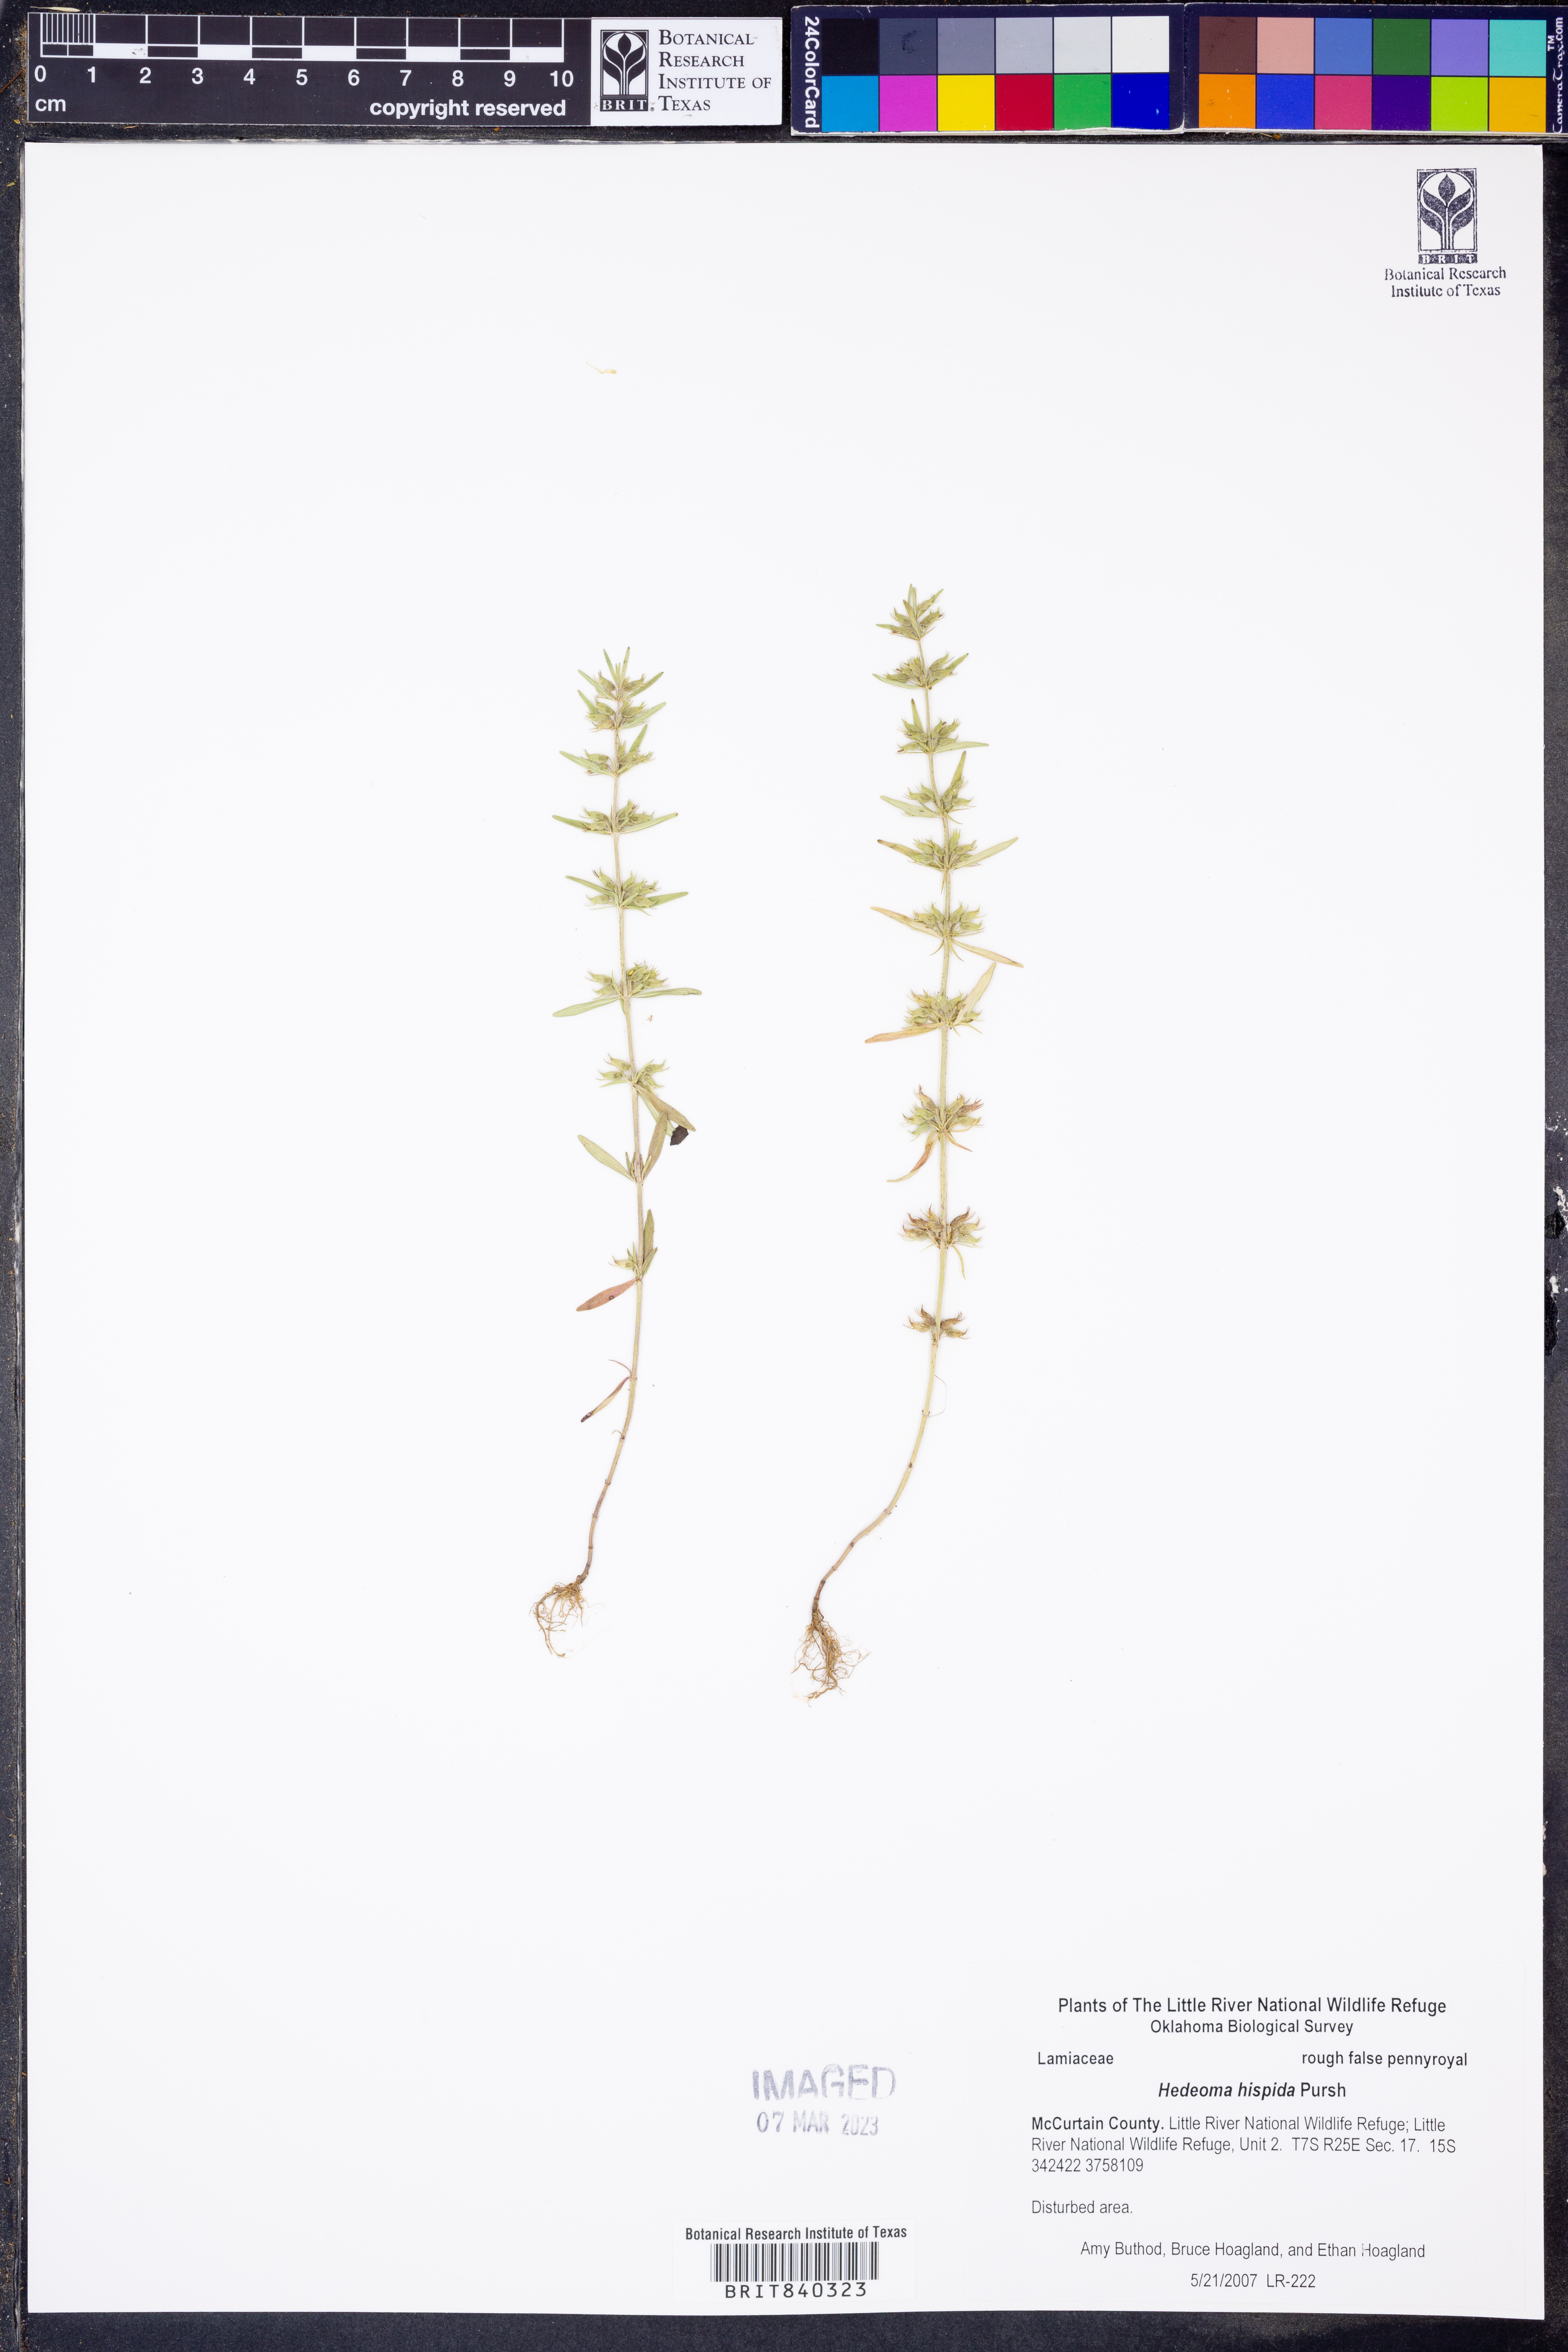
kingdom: Plantae
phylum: Tracheophyta
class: Magnoliopsida
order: Lamiales
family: Lamiaceae
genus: Hedeoma
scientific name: Hedeoma hispida
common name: Mock pennyroyal
